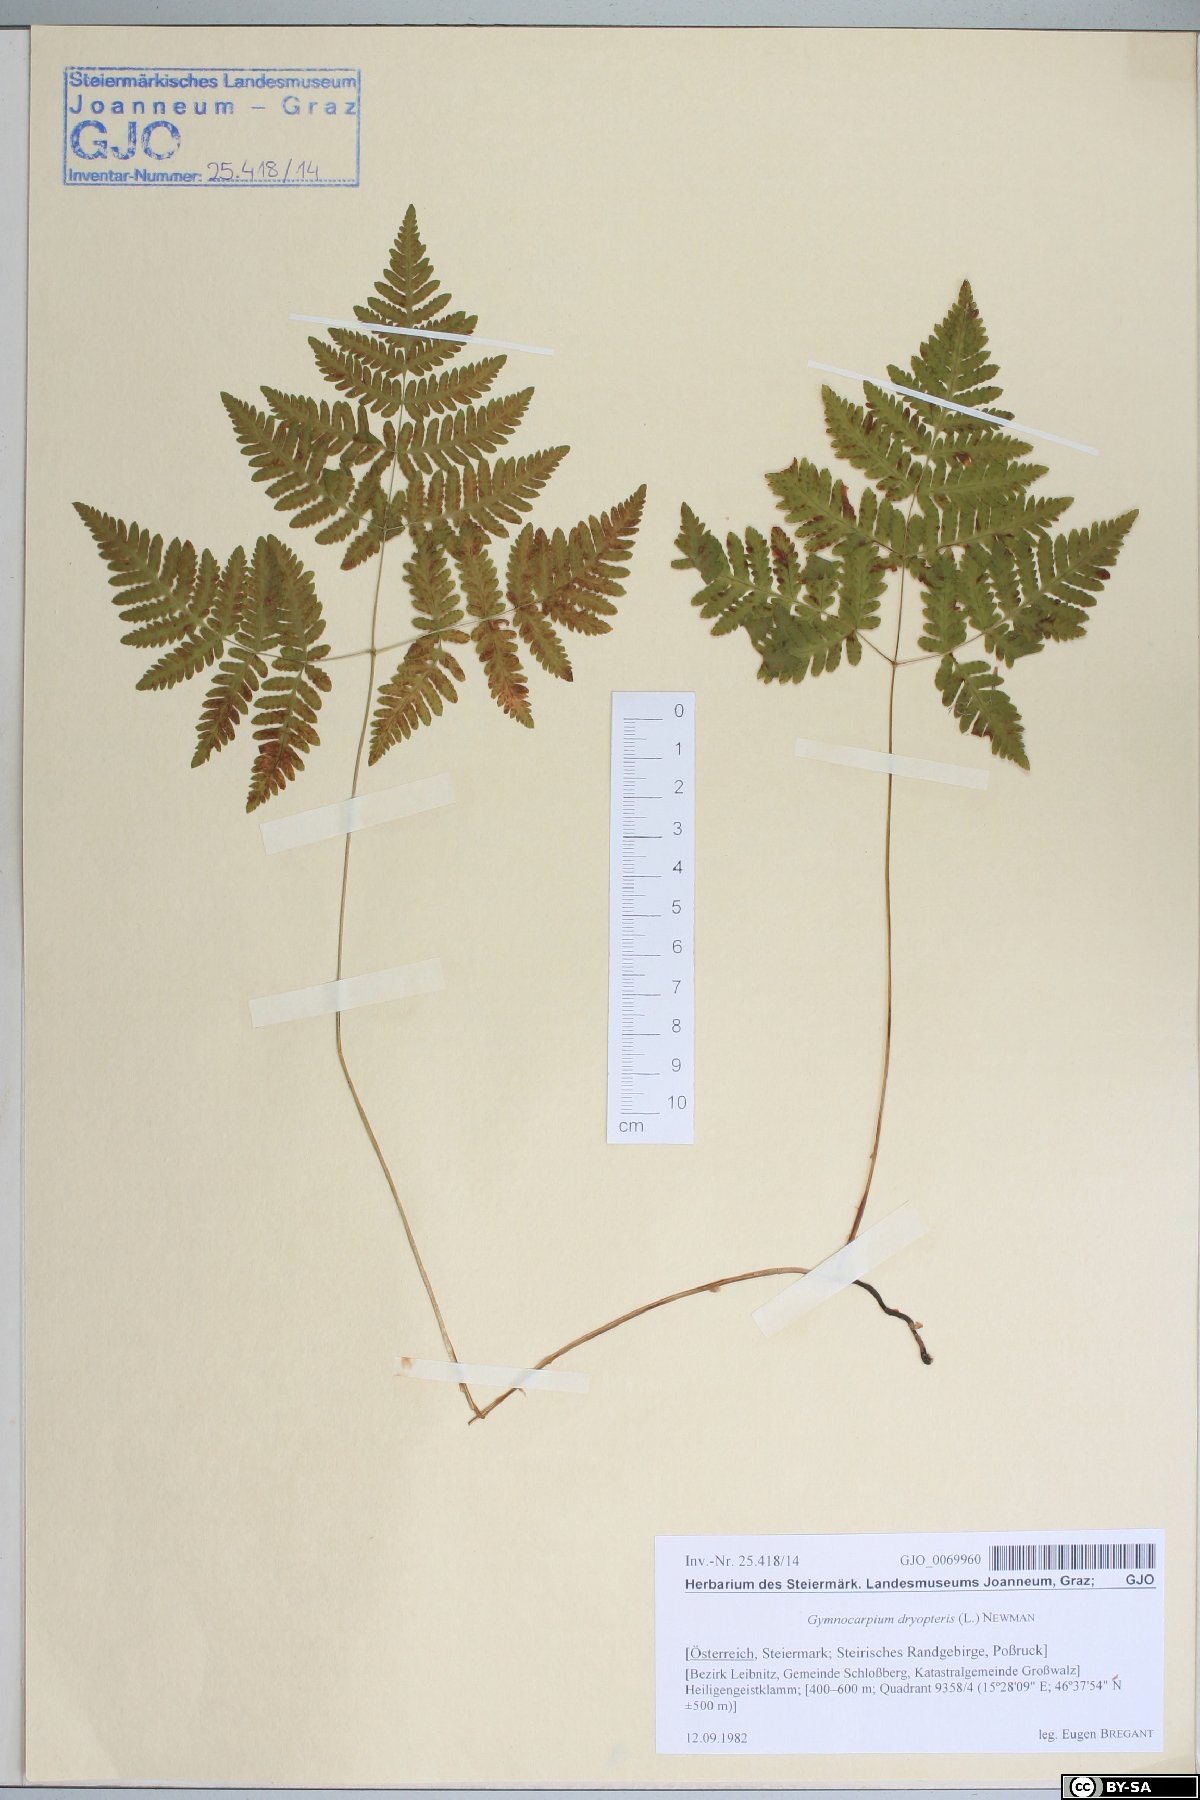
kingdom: Plantae
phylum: Tracheophyta
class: Polypodiopsida
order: Polypodiales
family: Cystopteridaceae
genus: Gymnocarpium
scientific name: Gymnocarpium dryopteris
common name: Oak fern
